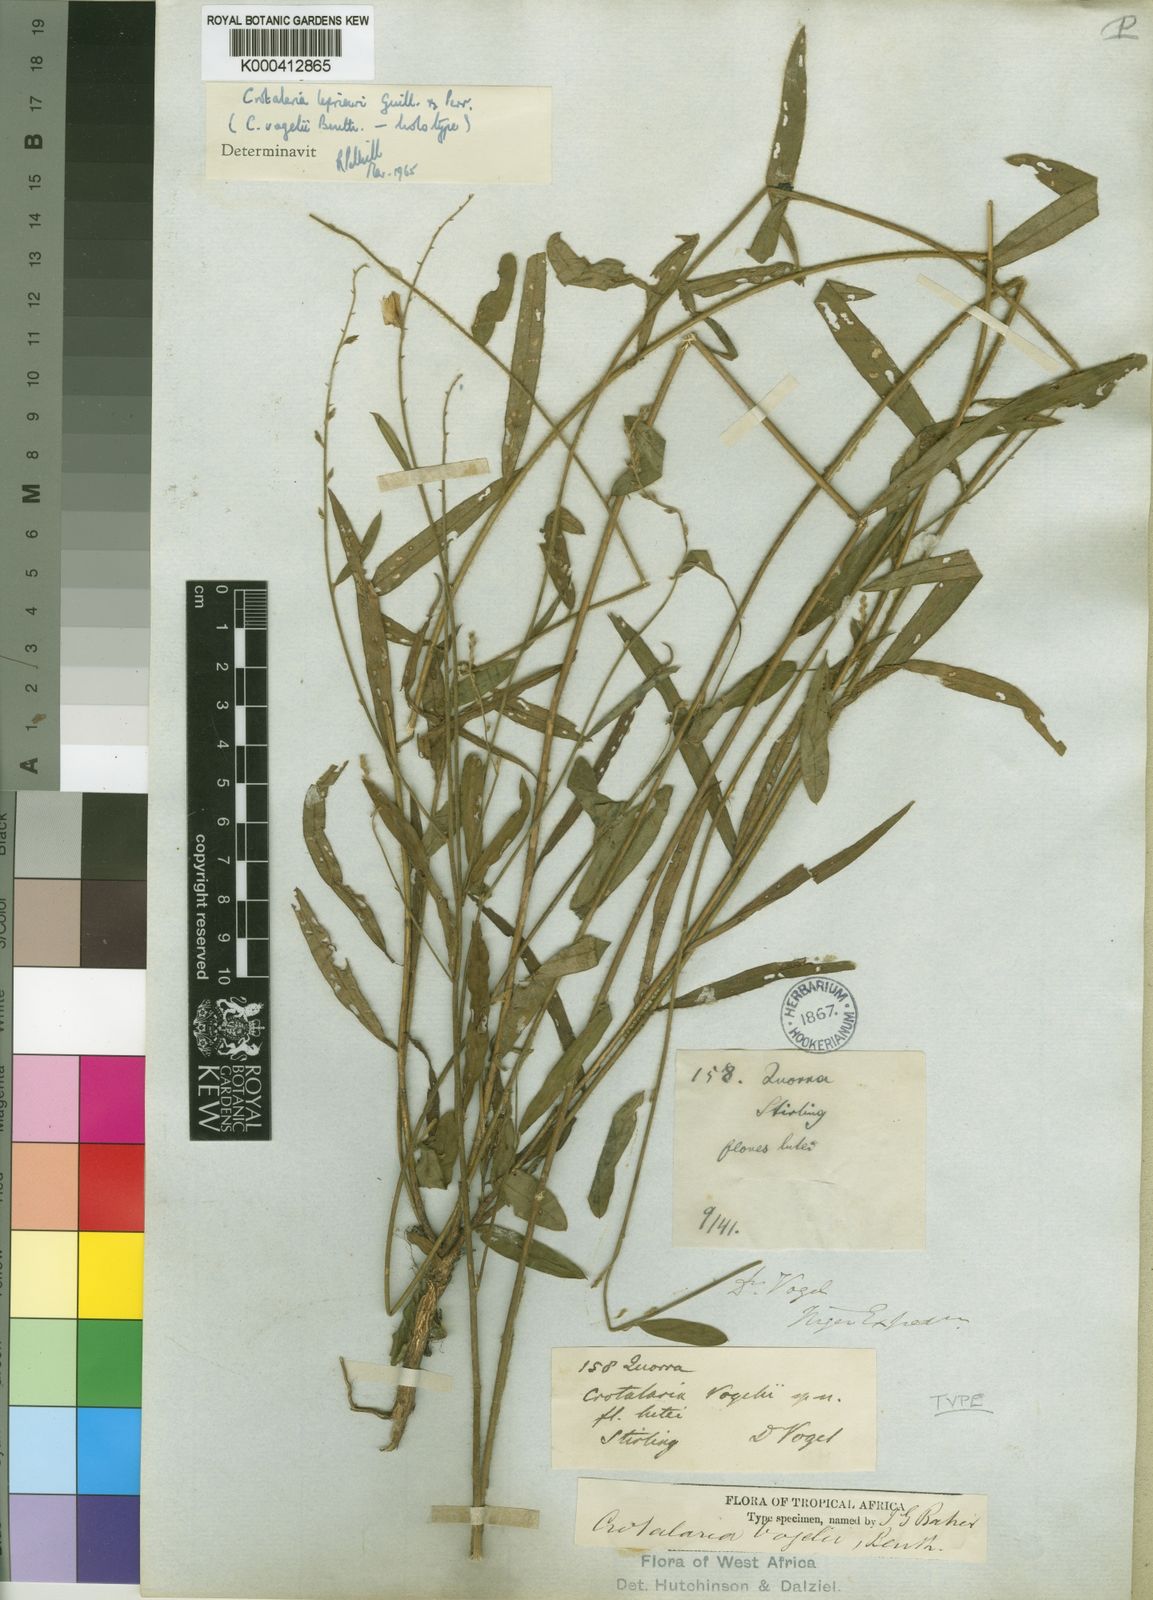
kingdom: Plantae
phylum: Tracheophyta
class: Magnoliopsida
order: Fabales
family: Fabaceae
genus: Crotalaria
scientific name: Crotalaria leprieurii
